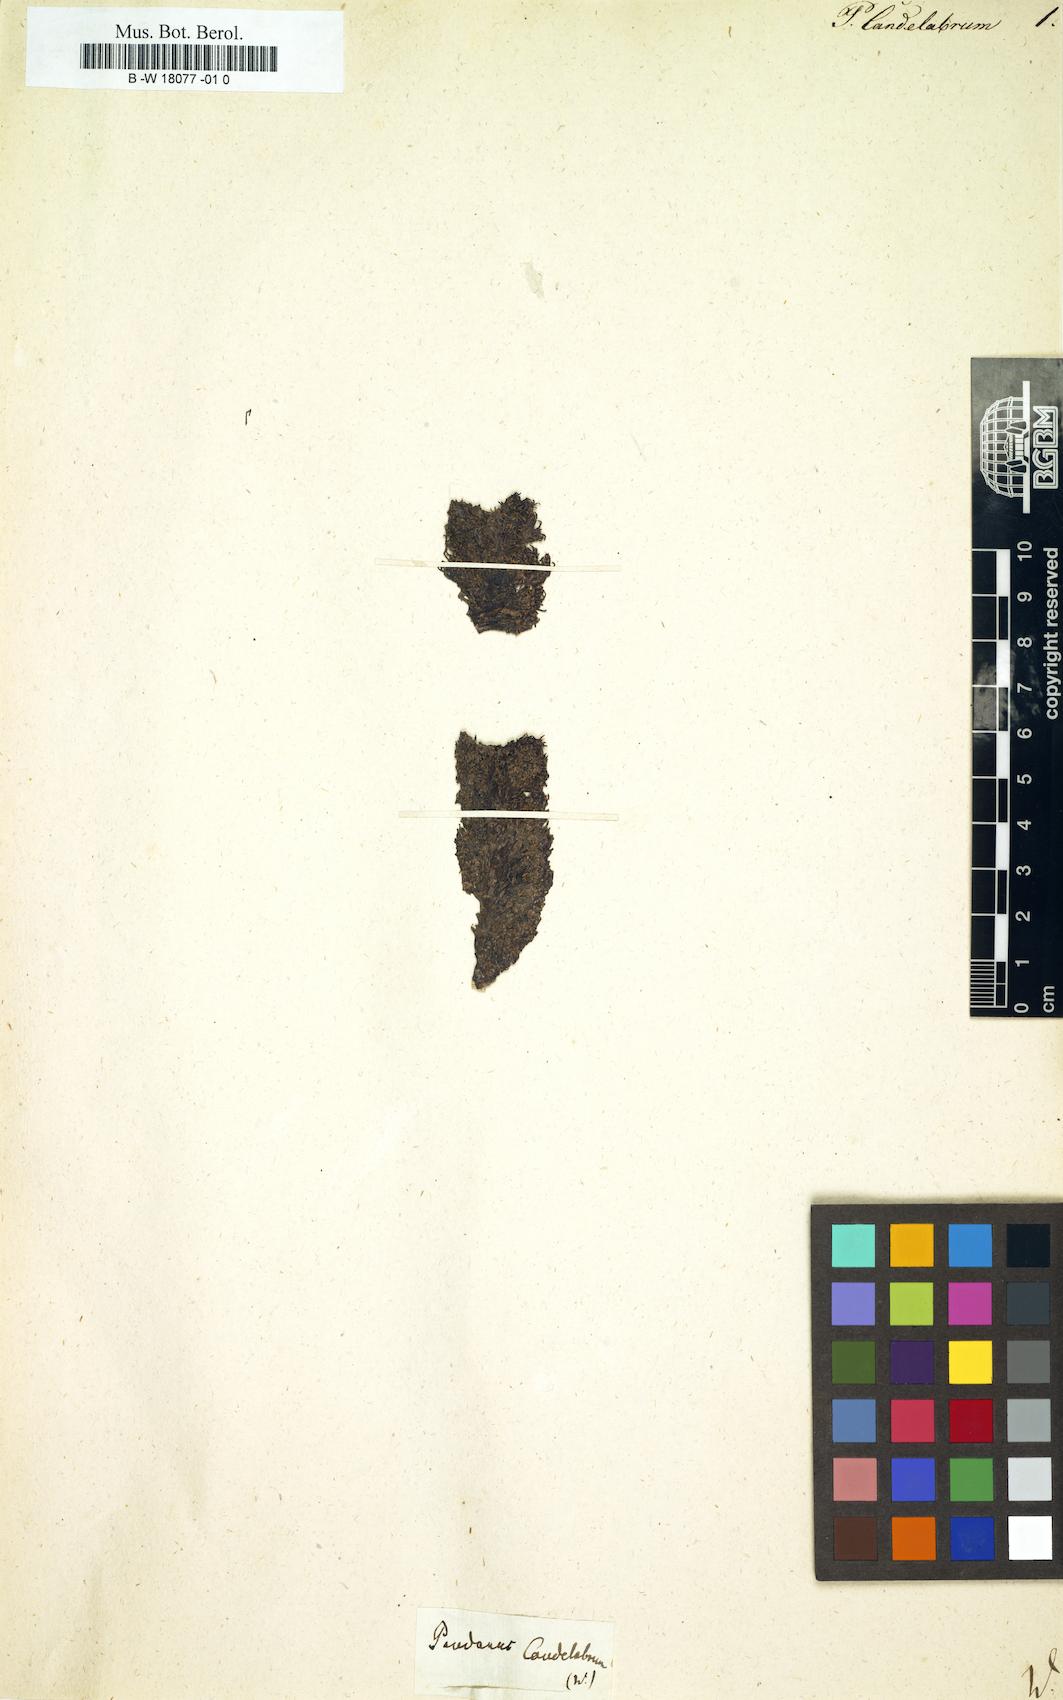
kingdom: Plantae
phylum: Tracheophyta
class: Liliopsida
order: Pandanales
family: Pandanaceae
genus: Pandanus
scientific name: Pandanus candelabrum
